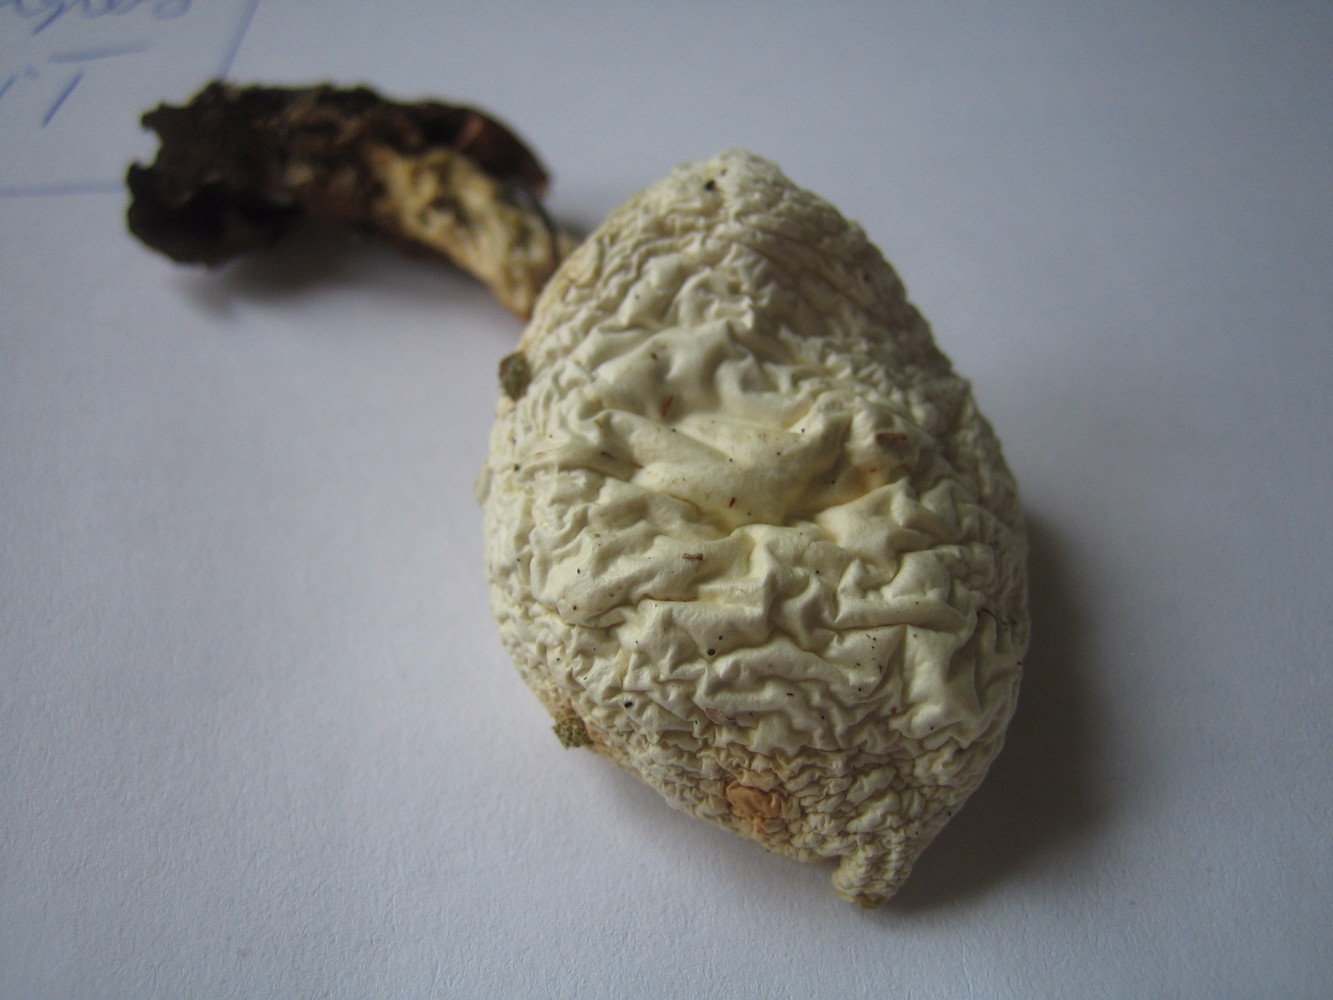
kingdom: Fungi
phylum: Basidiomycota
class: Agaricomycetes
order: Agaricales
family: Hygrophoraceae
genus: Hygrophorus
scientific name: Hygrophorus eburneus
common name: elfenbens-sneglehat
